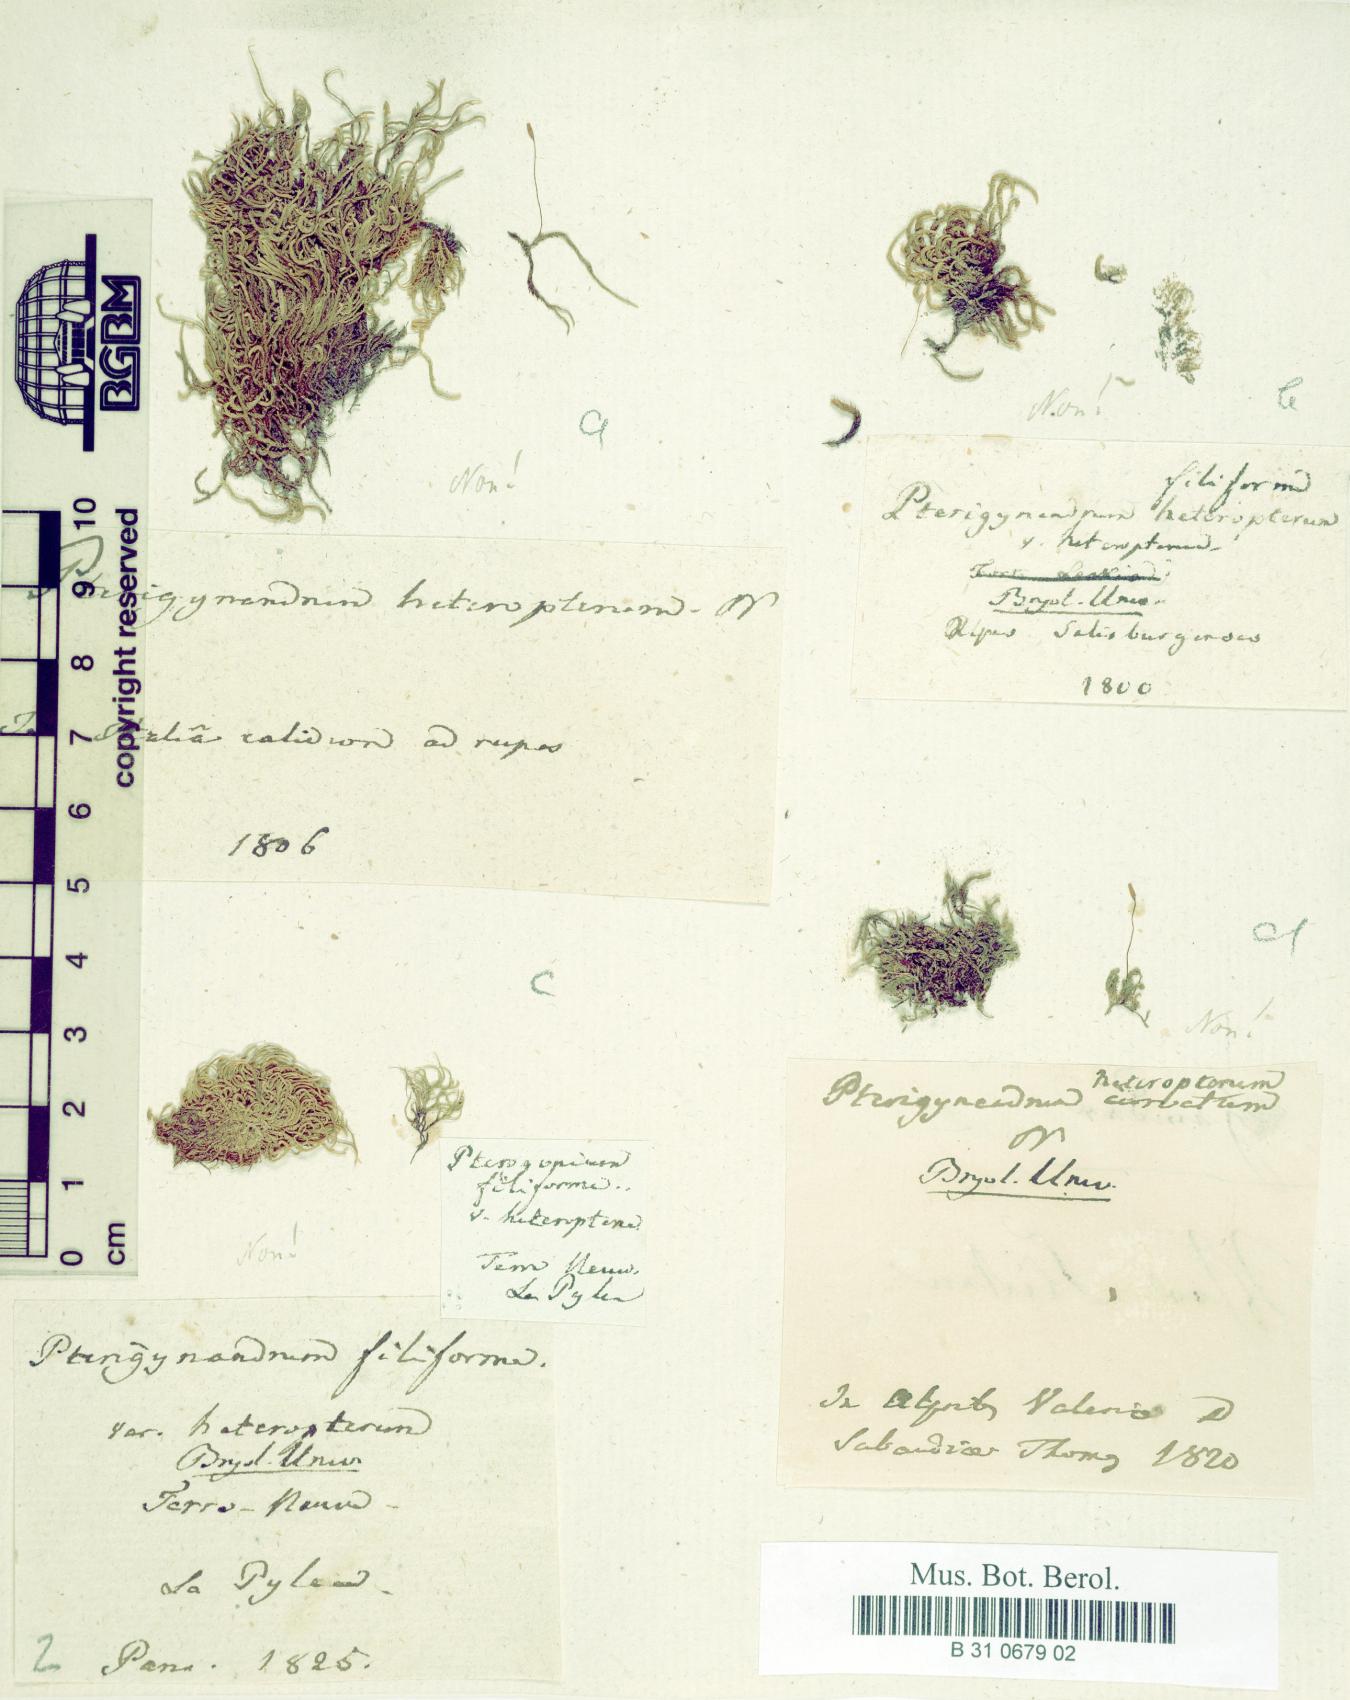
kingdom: Plantae
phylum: Bryophyta
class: Bryopsida
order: Hypnales
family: Pterigynandraceae
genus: Pterigynandrum
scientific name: Pterigynandrum filiforme
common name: Capillary wing moss
